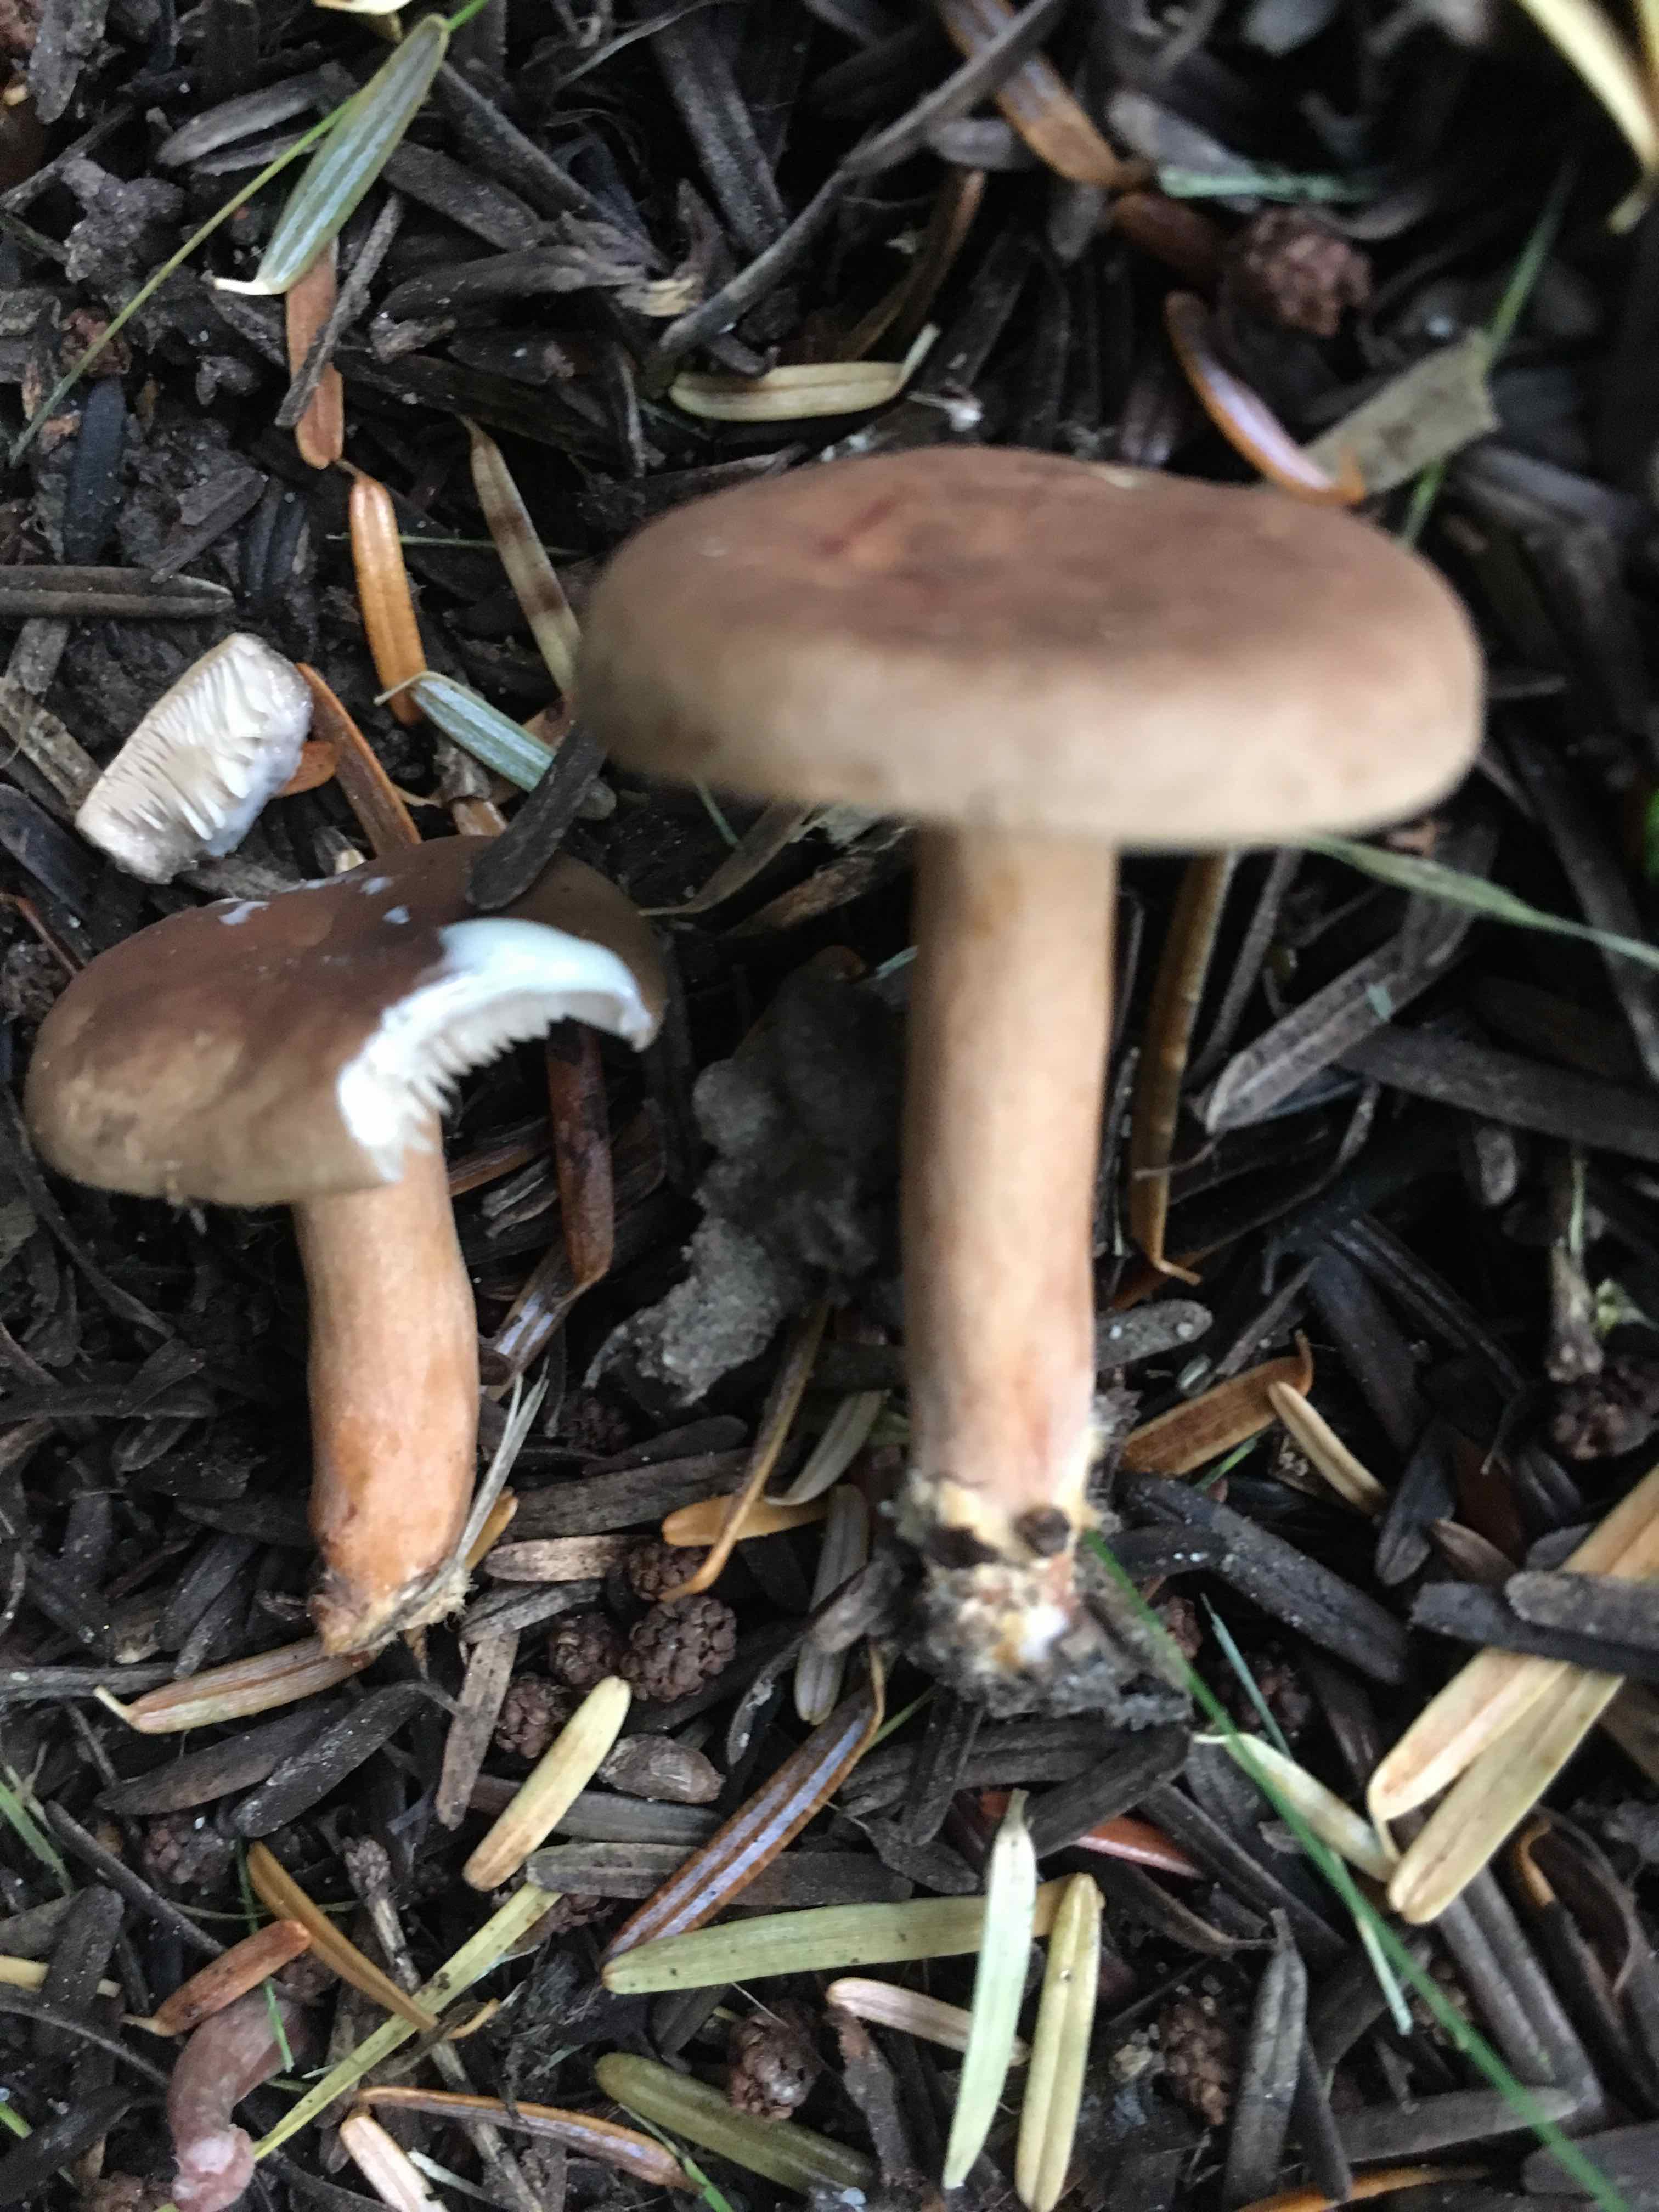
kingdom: Fungi
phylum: Basidiomycota
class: Agaricomycetes
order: Russulales
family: Russulaceae
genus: Lactarius
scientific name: Lactarius
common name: mælkehat
